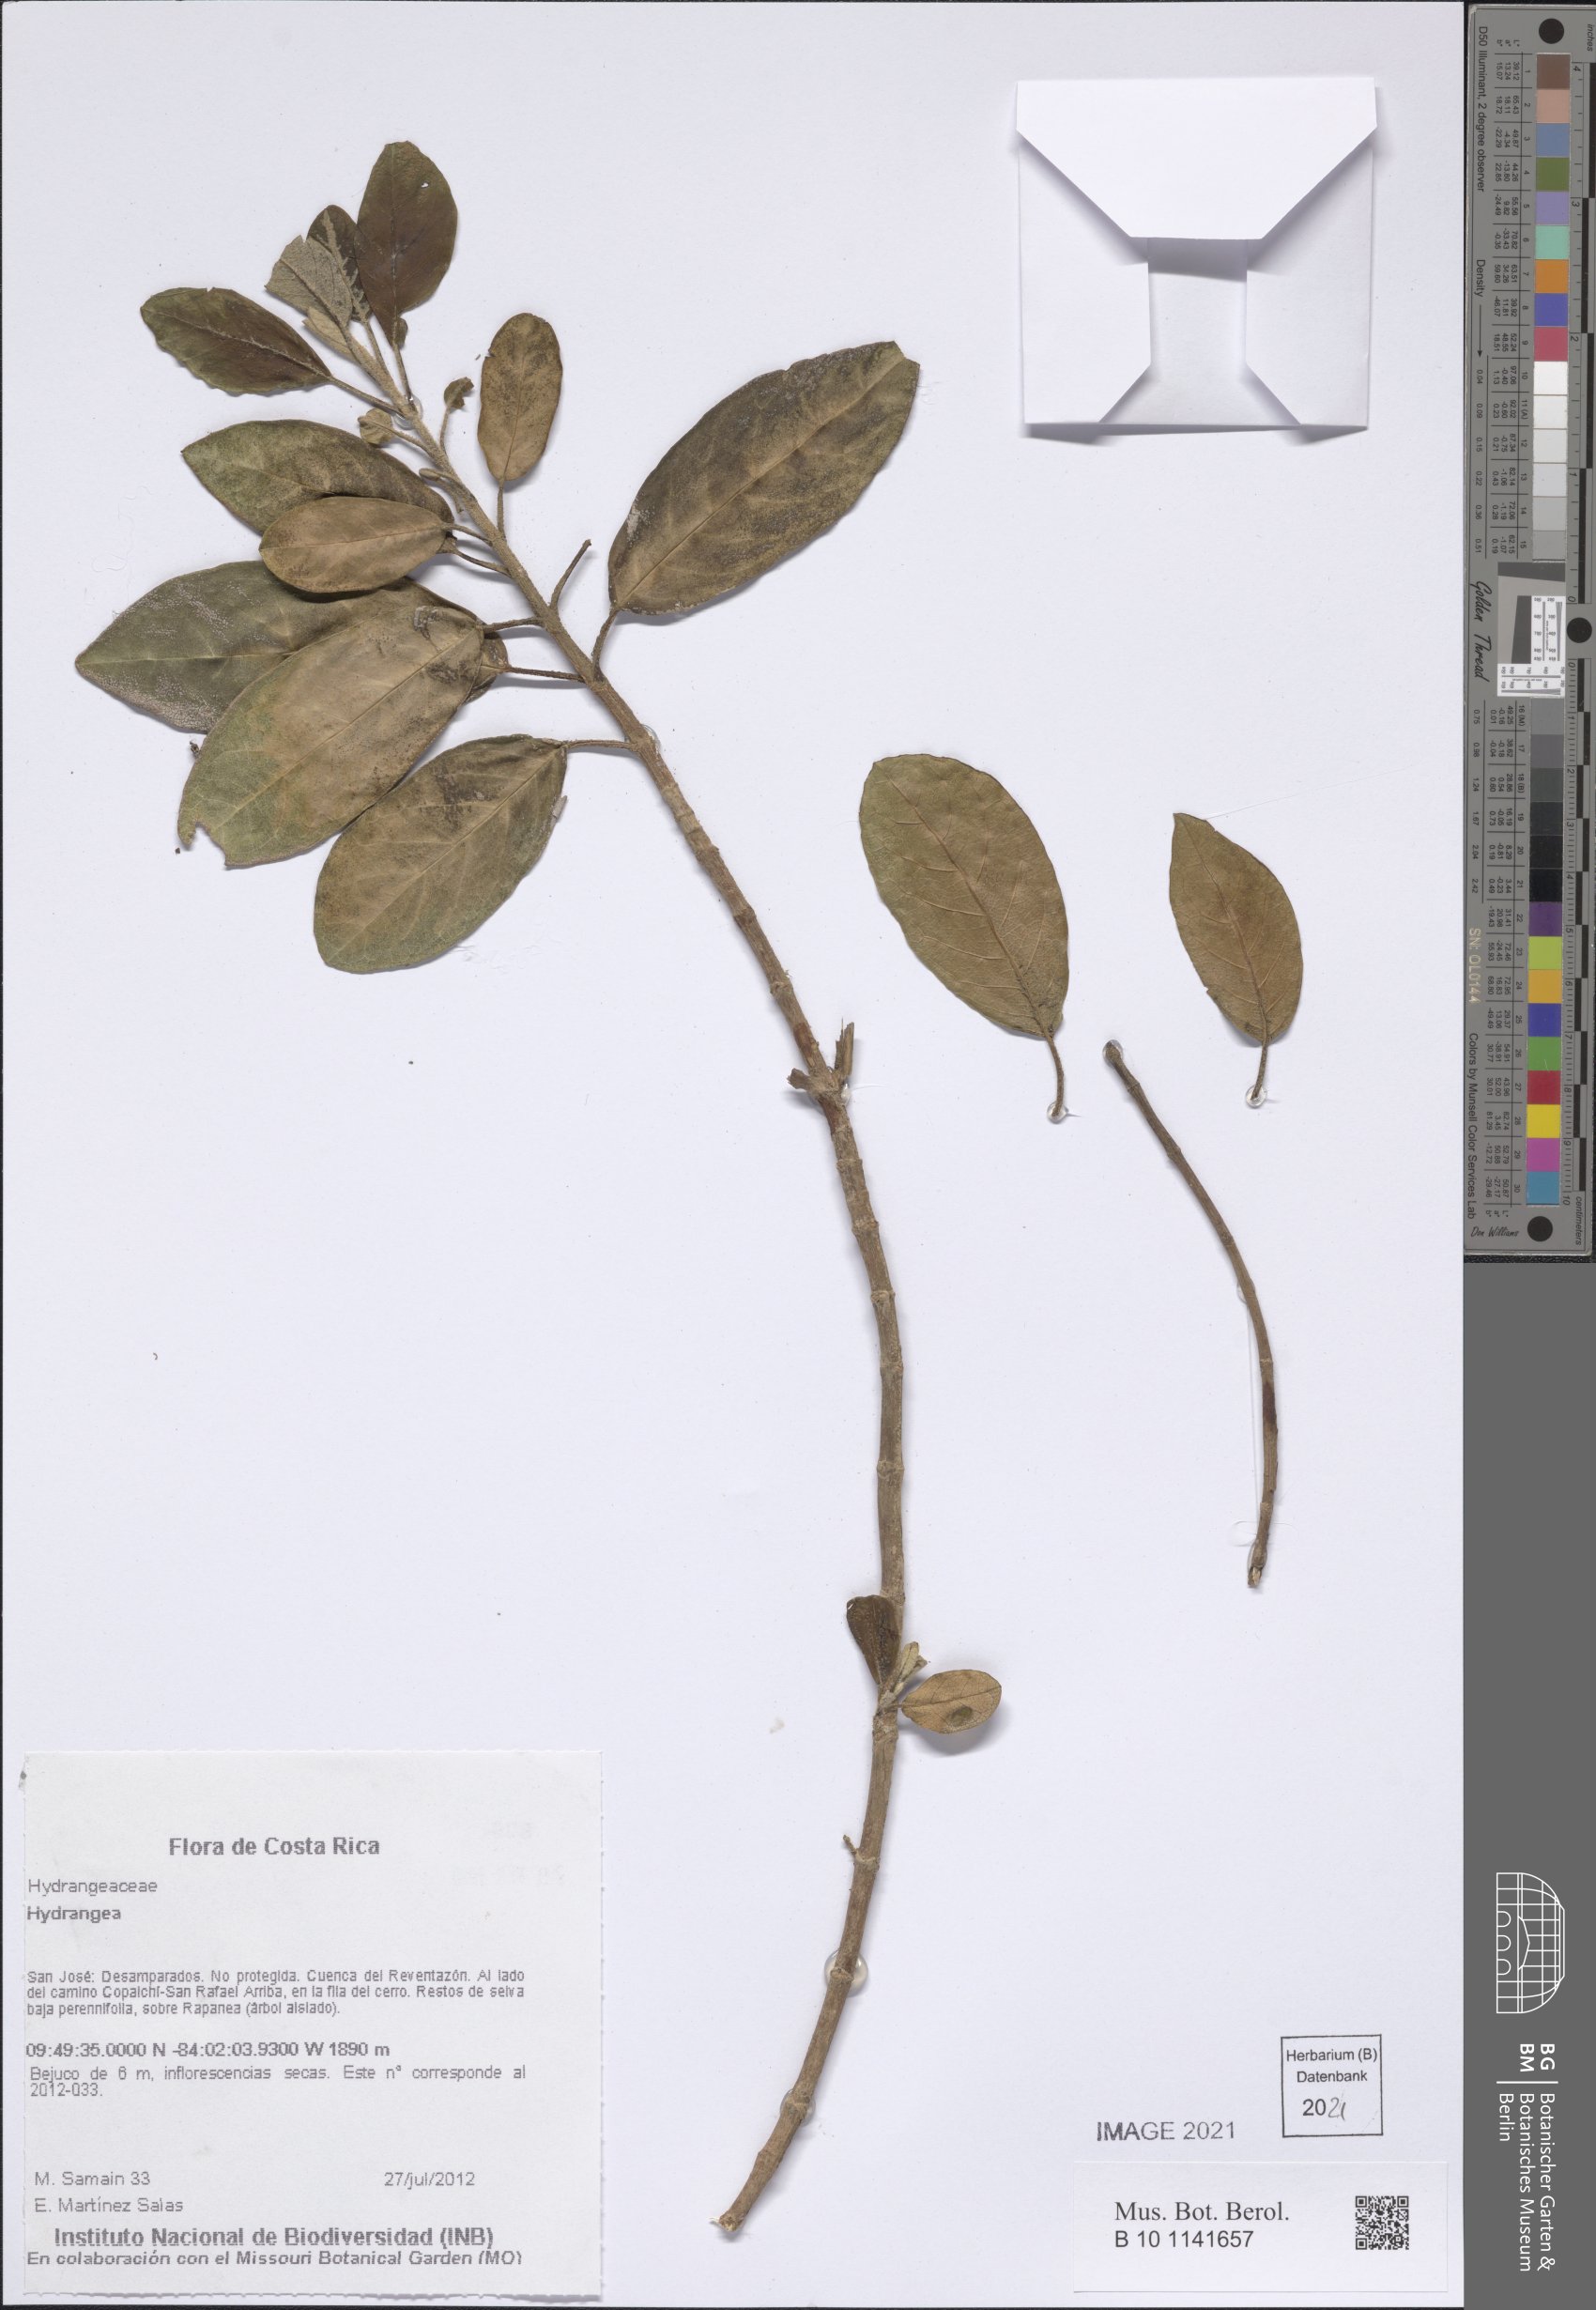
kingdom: Plantae
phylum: Tracheophyta
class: Magnoliopsida
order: Cornales
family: Hydrangeaceae
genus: Hydrangea
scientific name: Hydrangea
